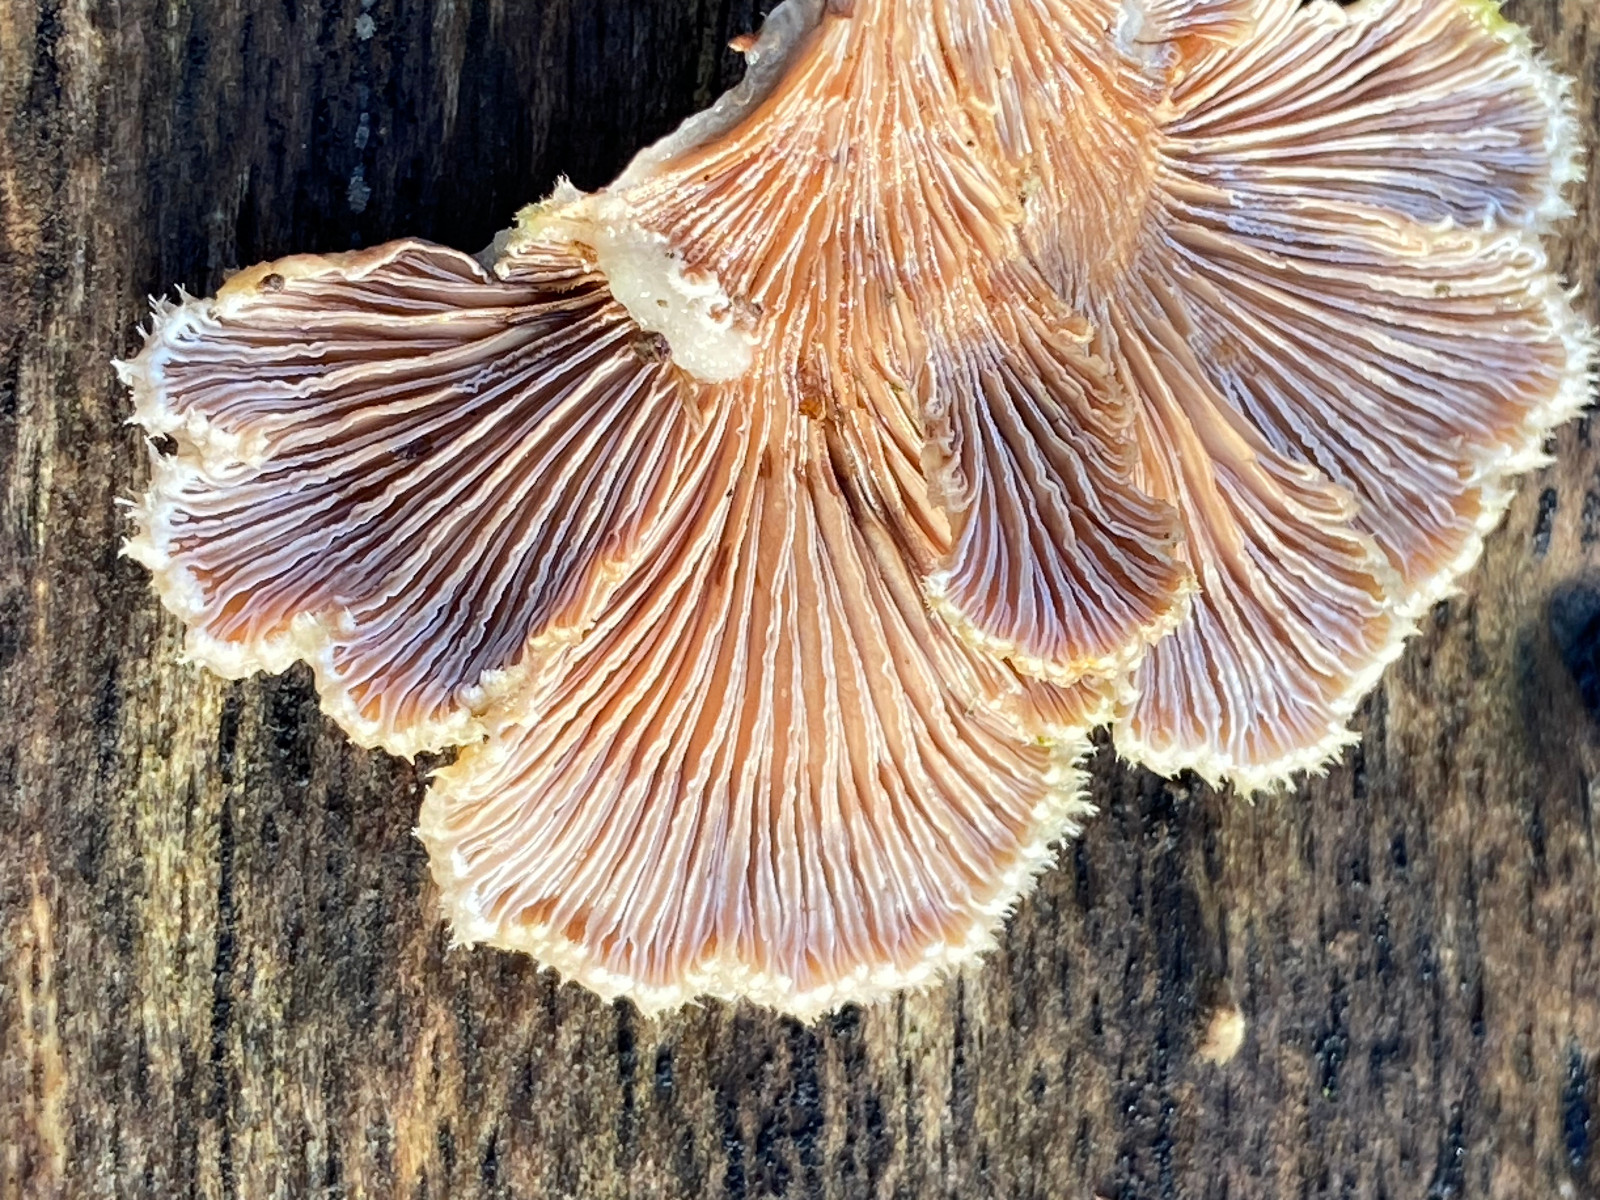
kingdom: Fungi
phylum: Basidiomycota
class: Agaricomycetes
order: Agaricales
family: Schizophyllaceae
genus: Schizophyllum
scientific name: Schizophyllum commune
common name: kløvblad
